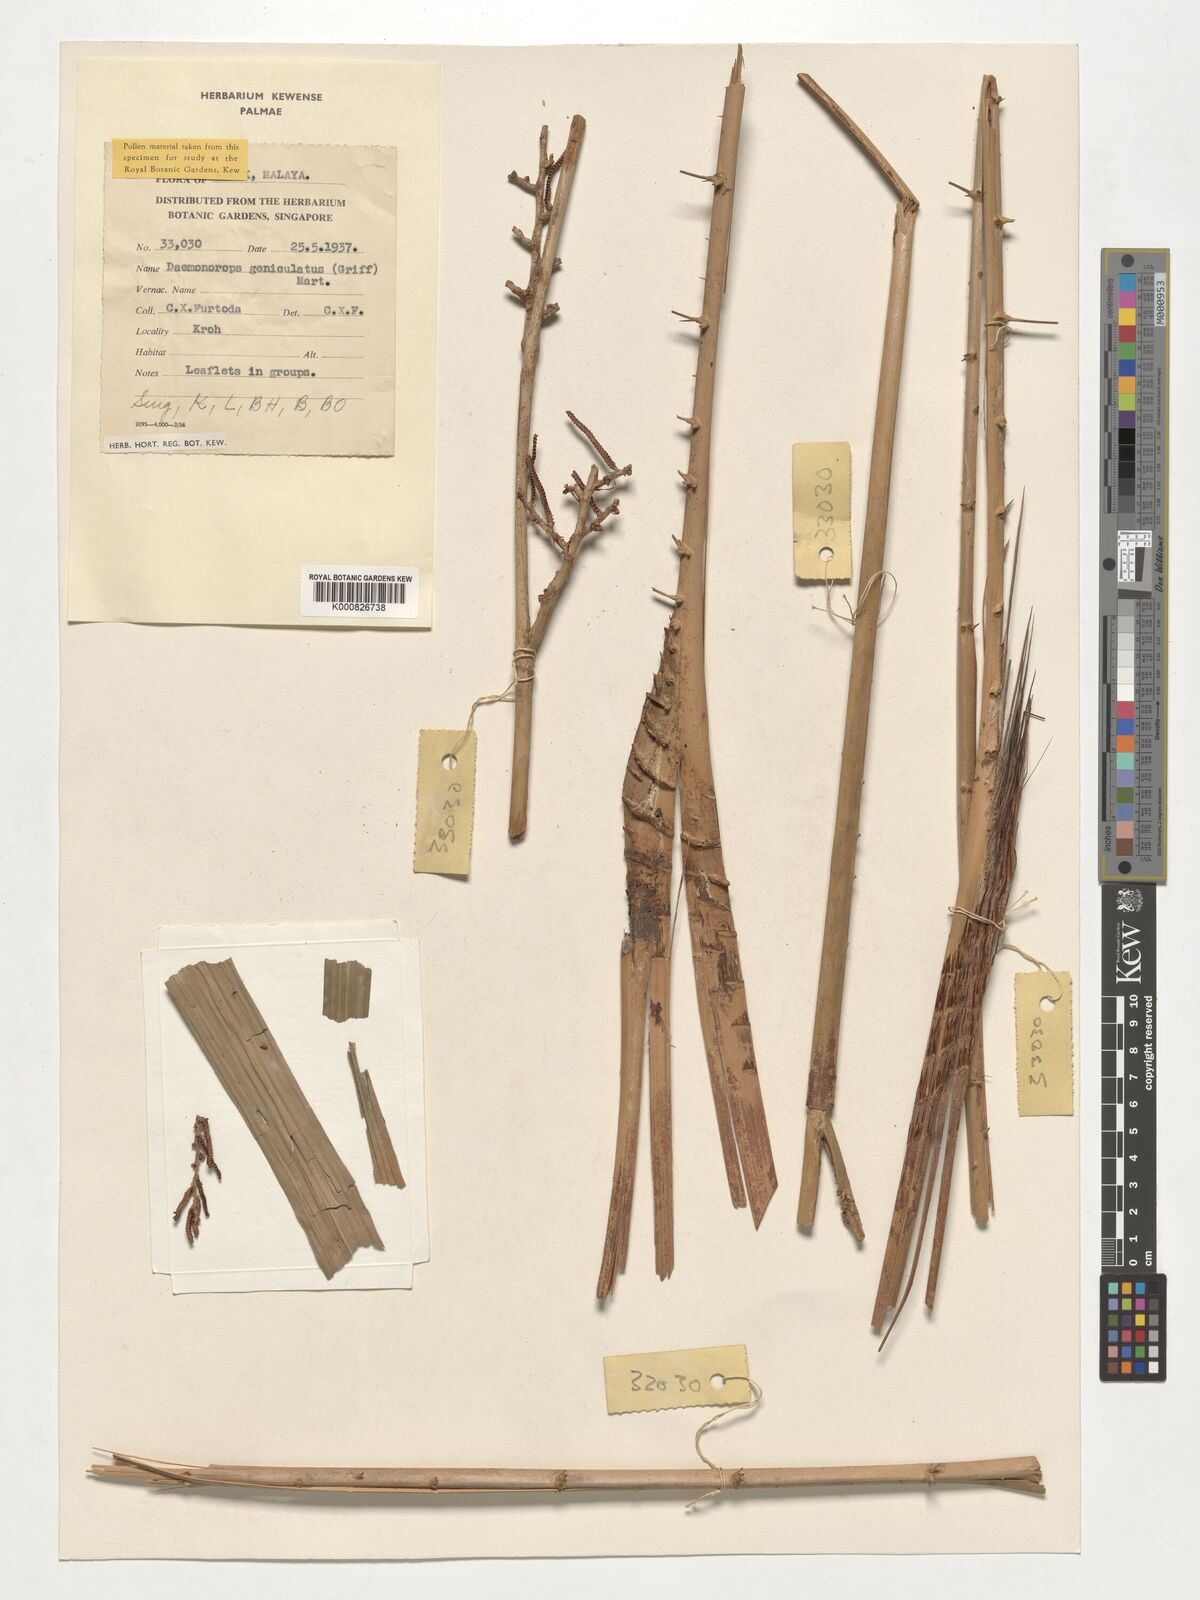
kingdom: Plantae
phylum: Tracheophyta
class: Liliopsida
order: Arecales
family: Arecaceae
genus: Calamus
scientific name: Calamus geniculatus
